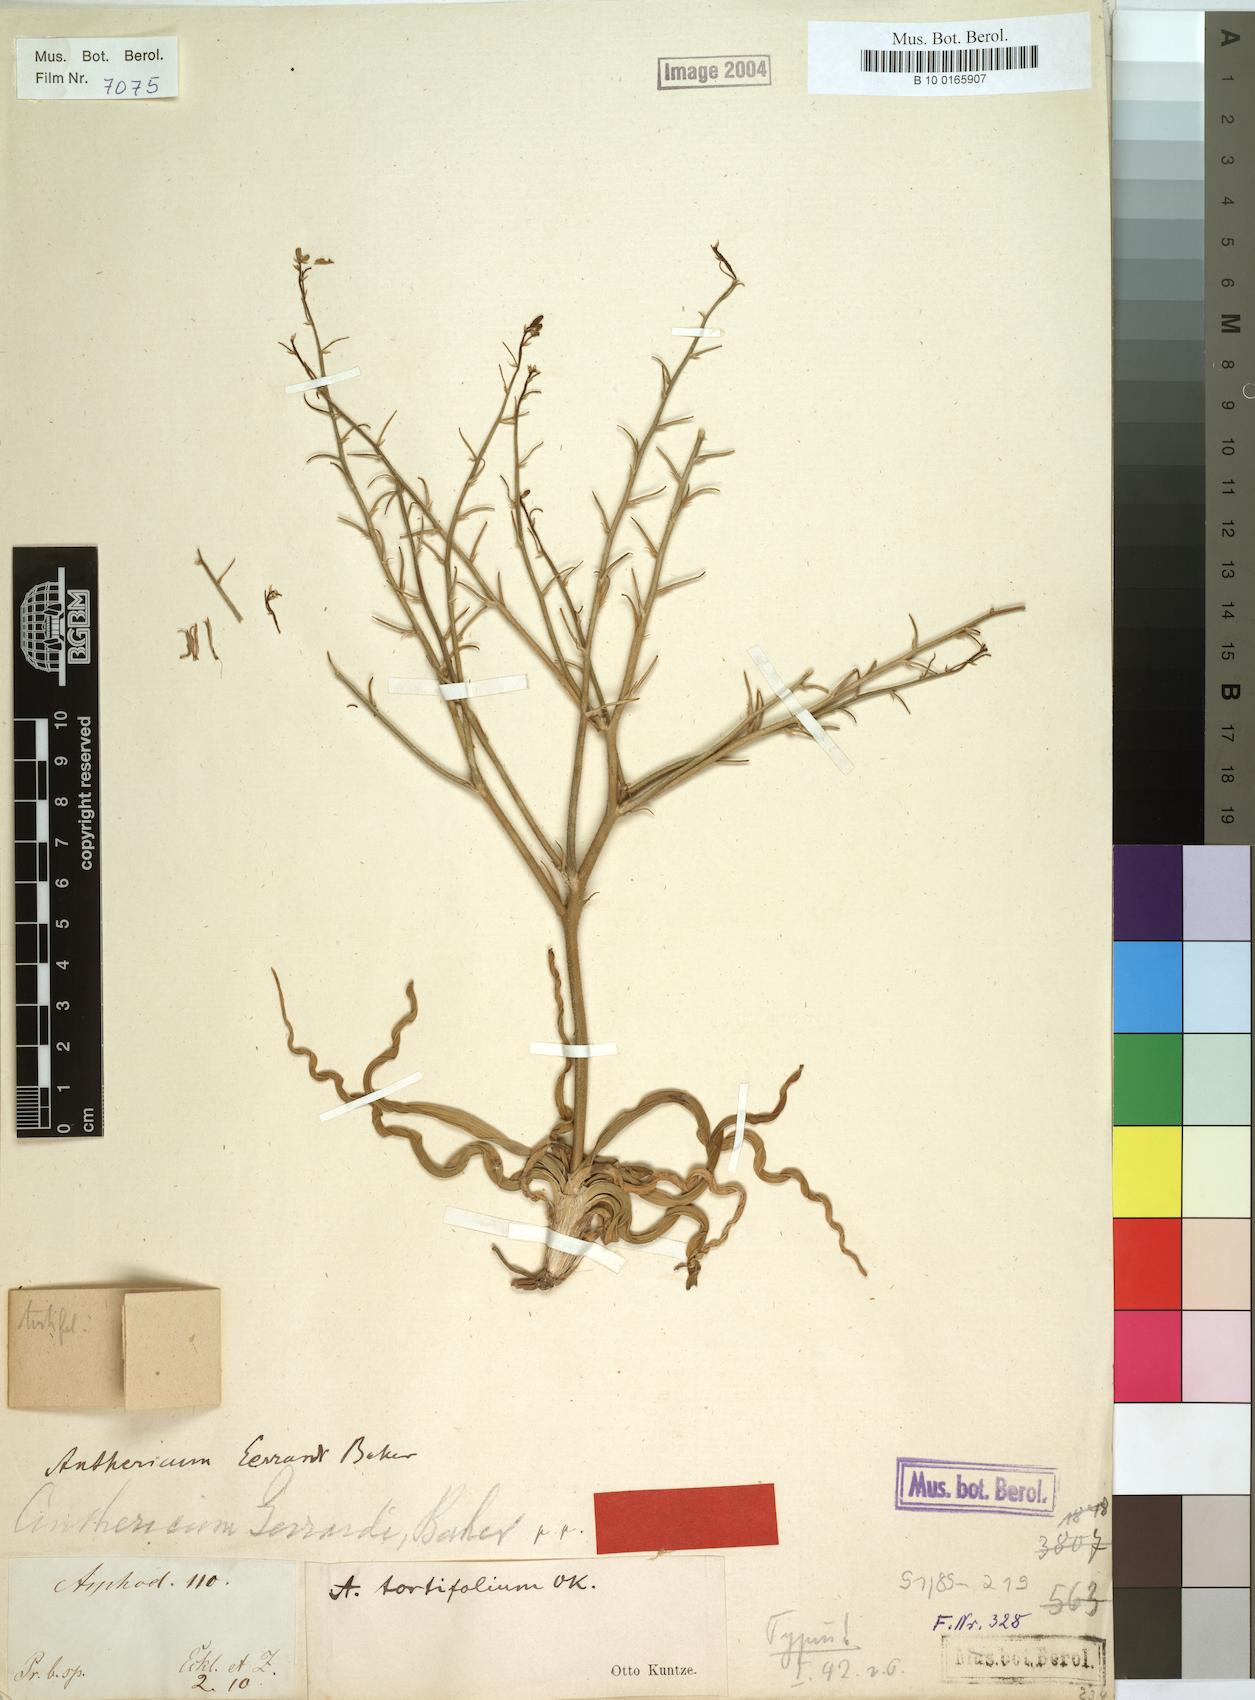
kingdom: Plantae
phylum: Tracheophyta
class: Liliopsida
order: Asparagales
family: Asphodelaceae
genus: Trachyandra
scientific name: Trachyandra gerrardii
